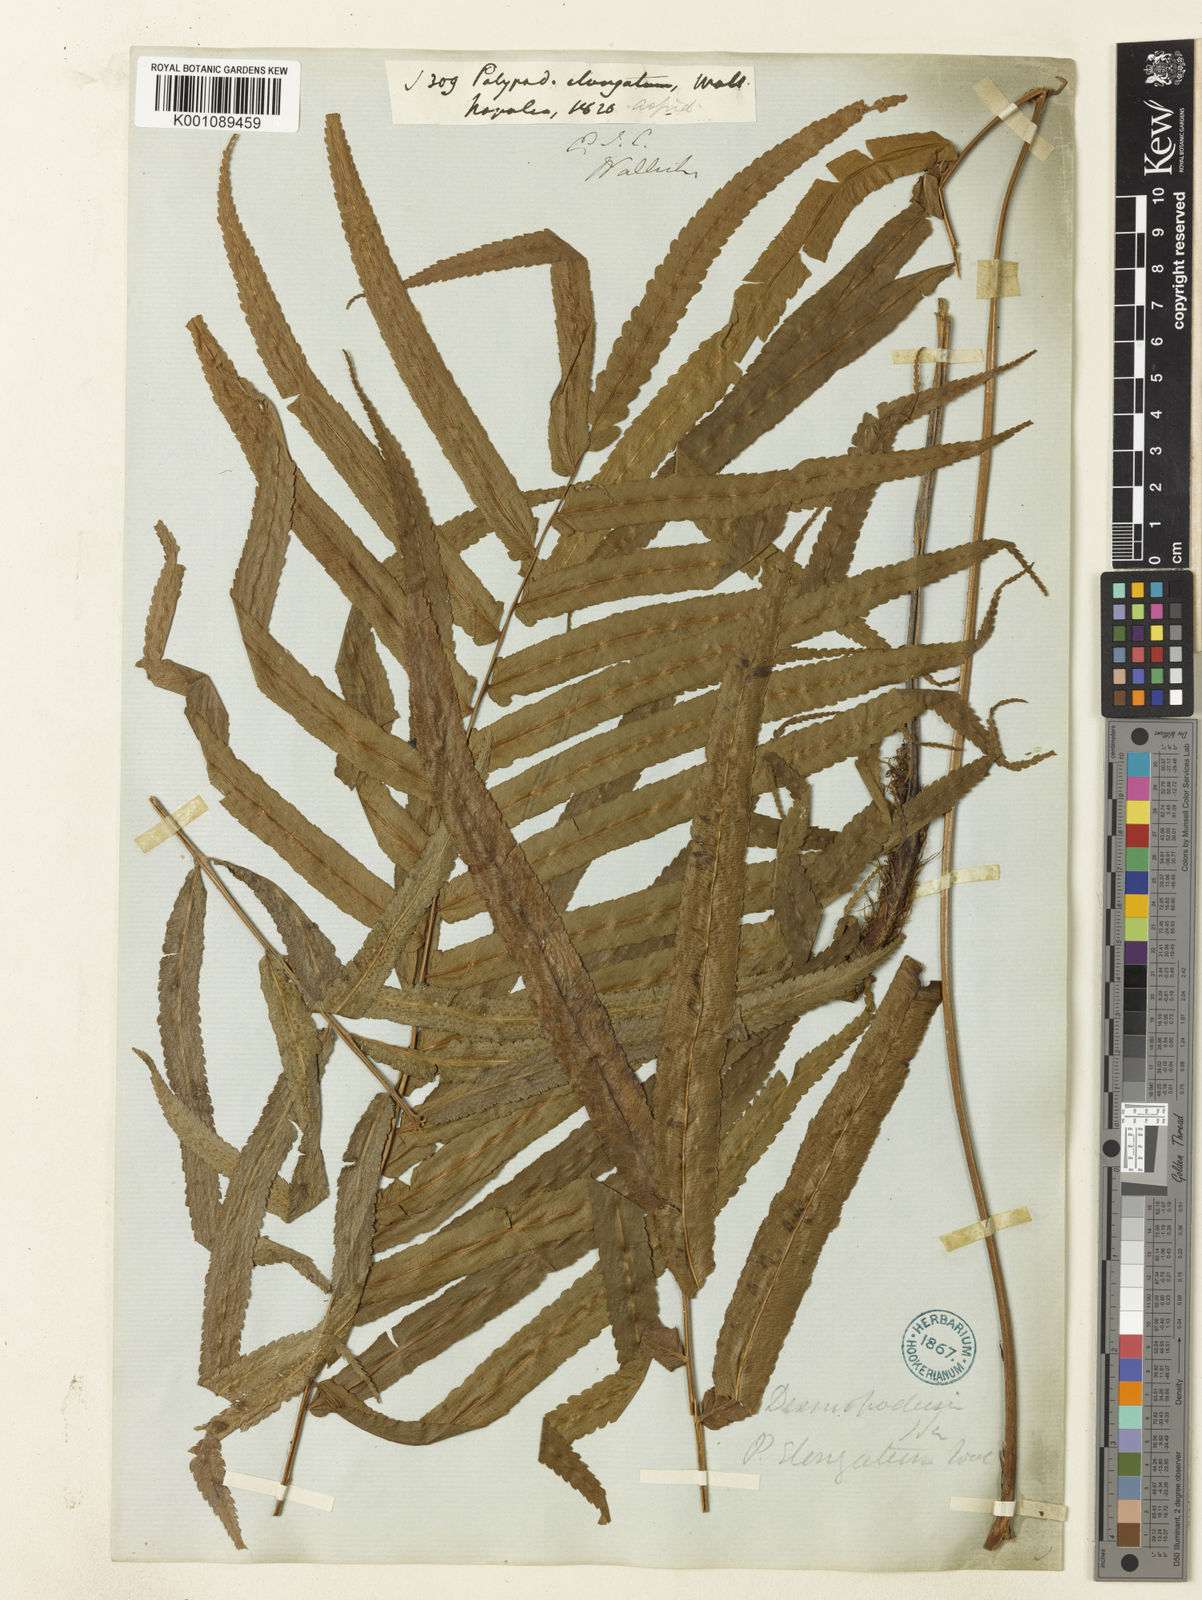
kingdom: Plantae
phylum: Tracheophyta
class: Polypodiopsida
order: Polypodiales
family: Athyriaceae
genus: Anisocampium
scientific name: Anisocampium cuspidatum
